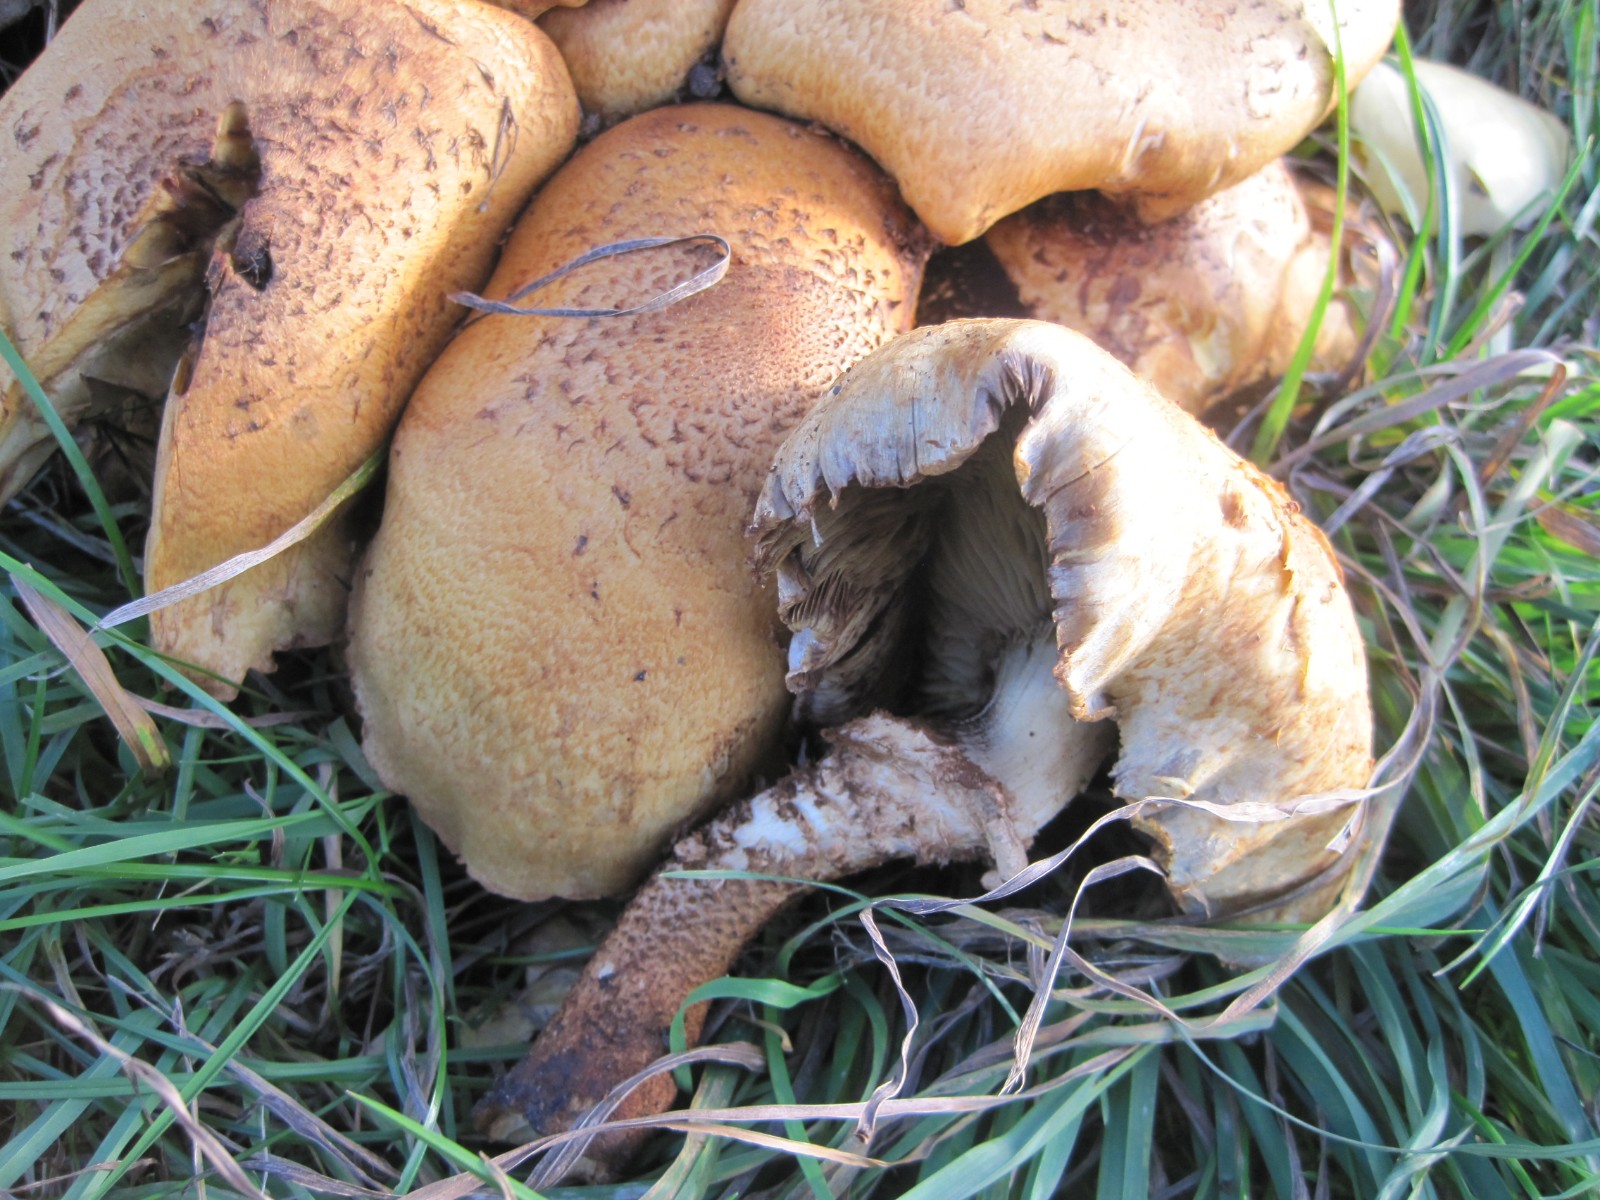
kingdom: Fungi
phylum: Basidiomycota
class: Agaricomycetes
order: Agaricales
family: Strophariaceae
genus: Pholiota
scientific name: Pholiota squarrosa
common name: krumskællet skælhat
